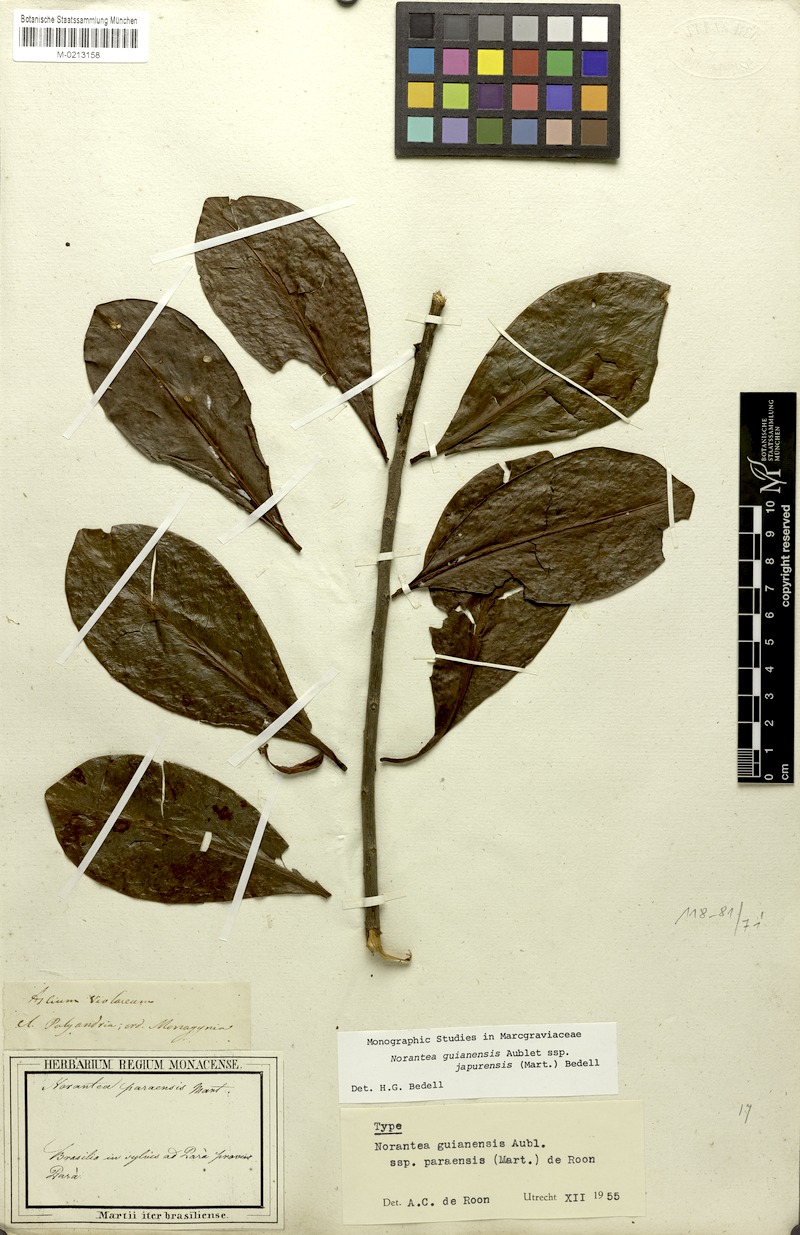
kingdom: Plantae
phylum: Tracheophyta
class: Magnoliopsida
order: Ericales
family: Marcgraviaceae
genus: Norantea
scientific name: Norantea guianensis
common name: Red hot poker vine
